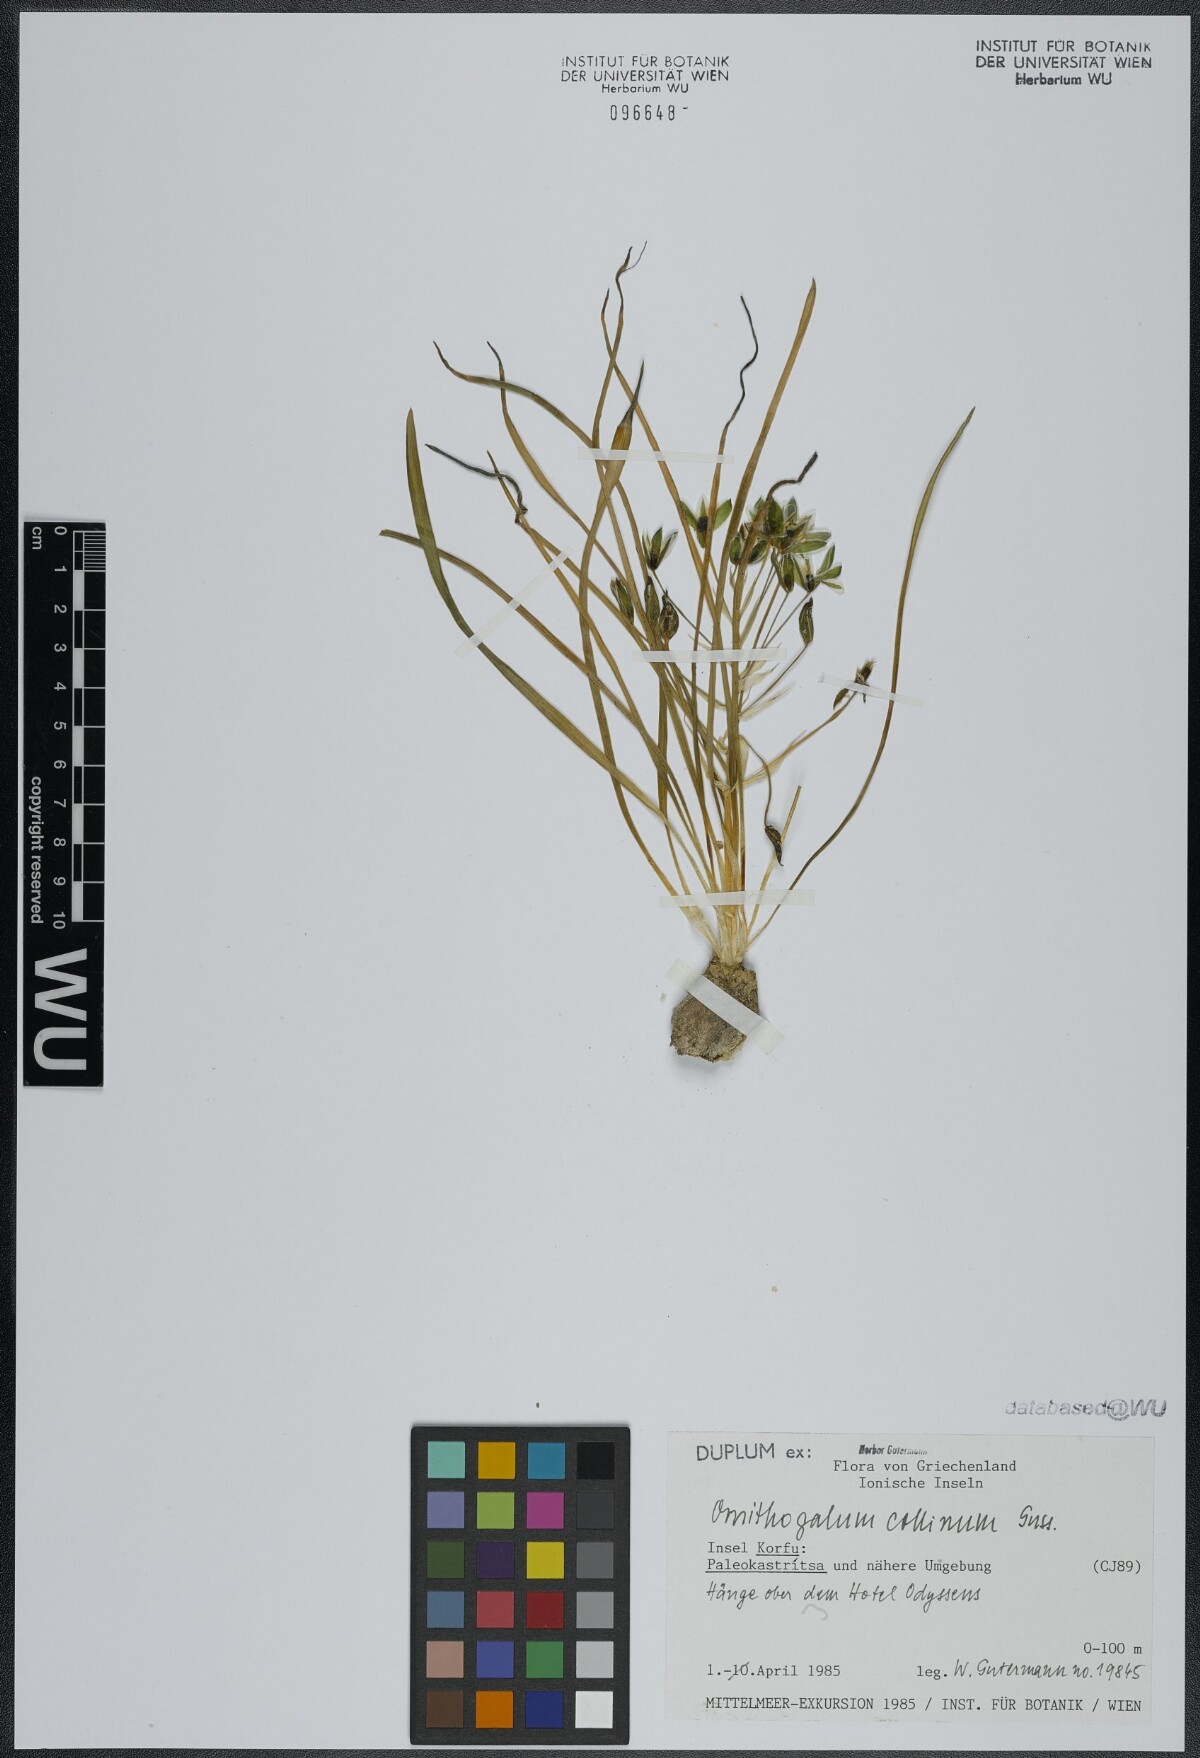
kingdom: Plantae
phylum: Tracheophyta
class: Liliopsida
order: Asparagales
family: Asparagaceae
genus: Ornithogalum
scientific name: Ornithogalum collinum
